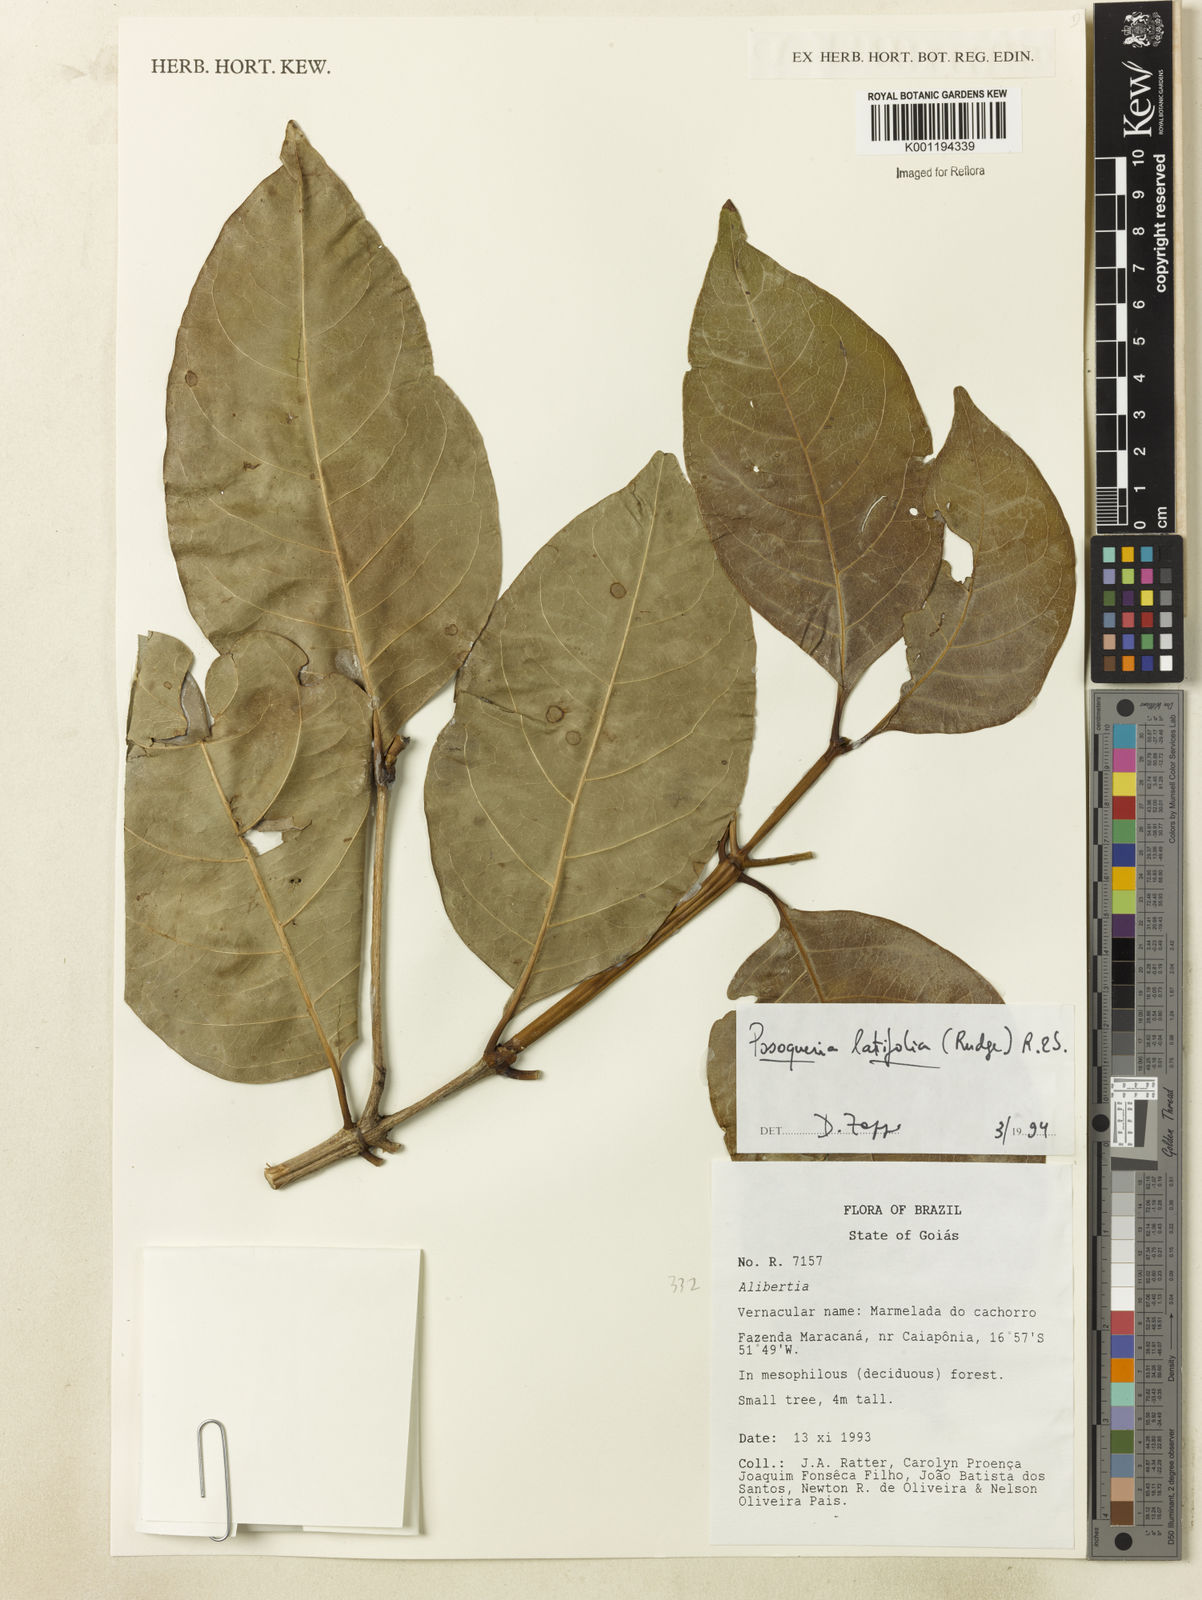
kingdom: Plantae
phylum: Tracheophyta
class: Magnoliopsida
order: Gentianales
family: Rubiaceae
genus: Posoqueria
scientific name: Posoqueria latifolia
